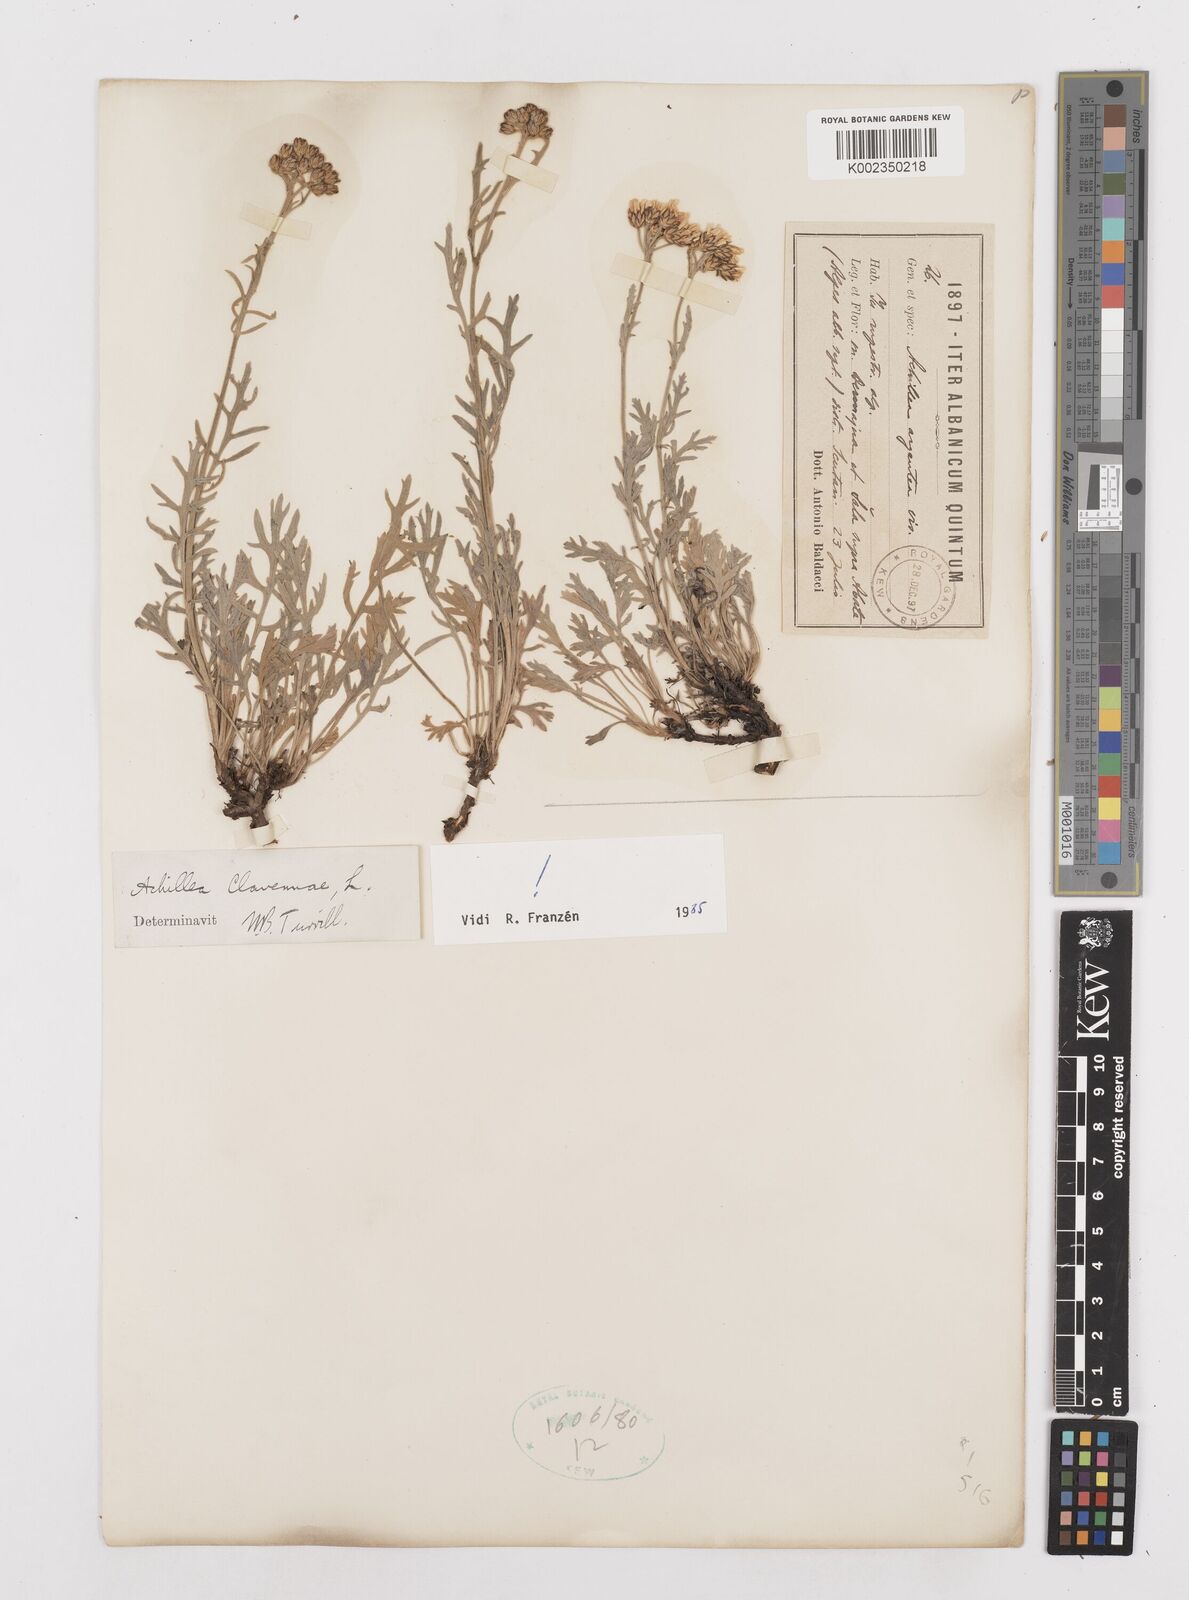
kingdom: Plantae
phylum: Tracheophyta
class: Magnoliopsida
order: Asterales
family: Asteraceae
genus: Achillea
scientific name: Achillea clavennae
